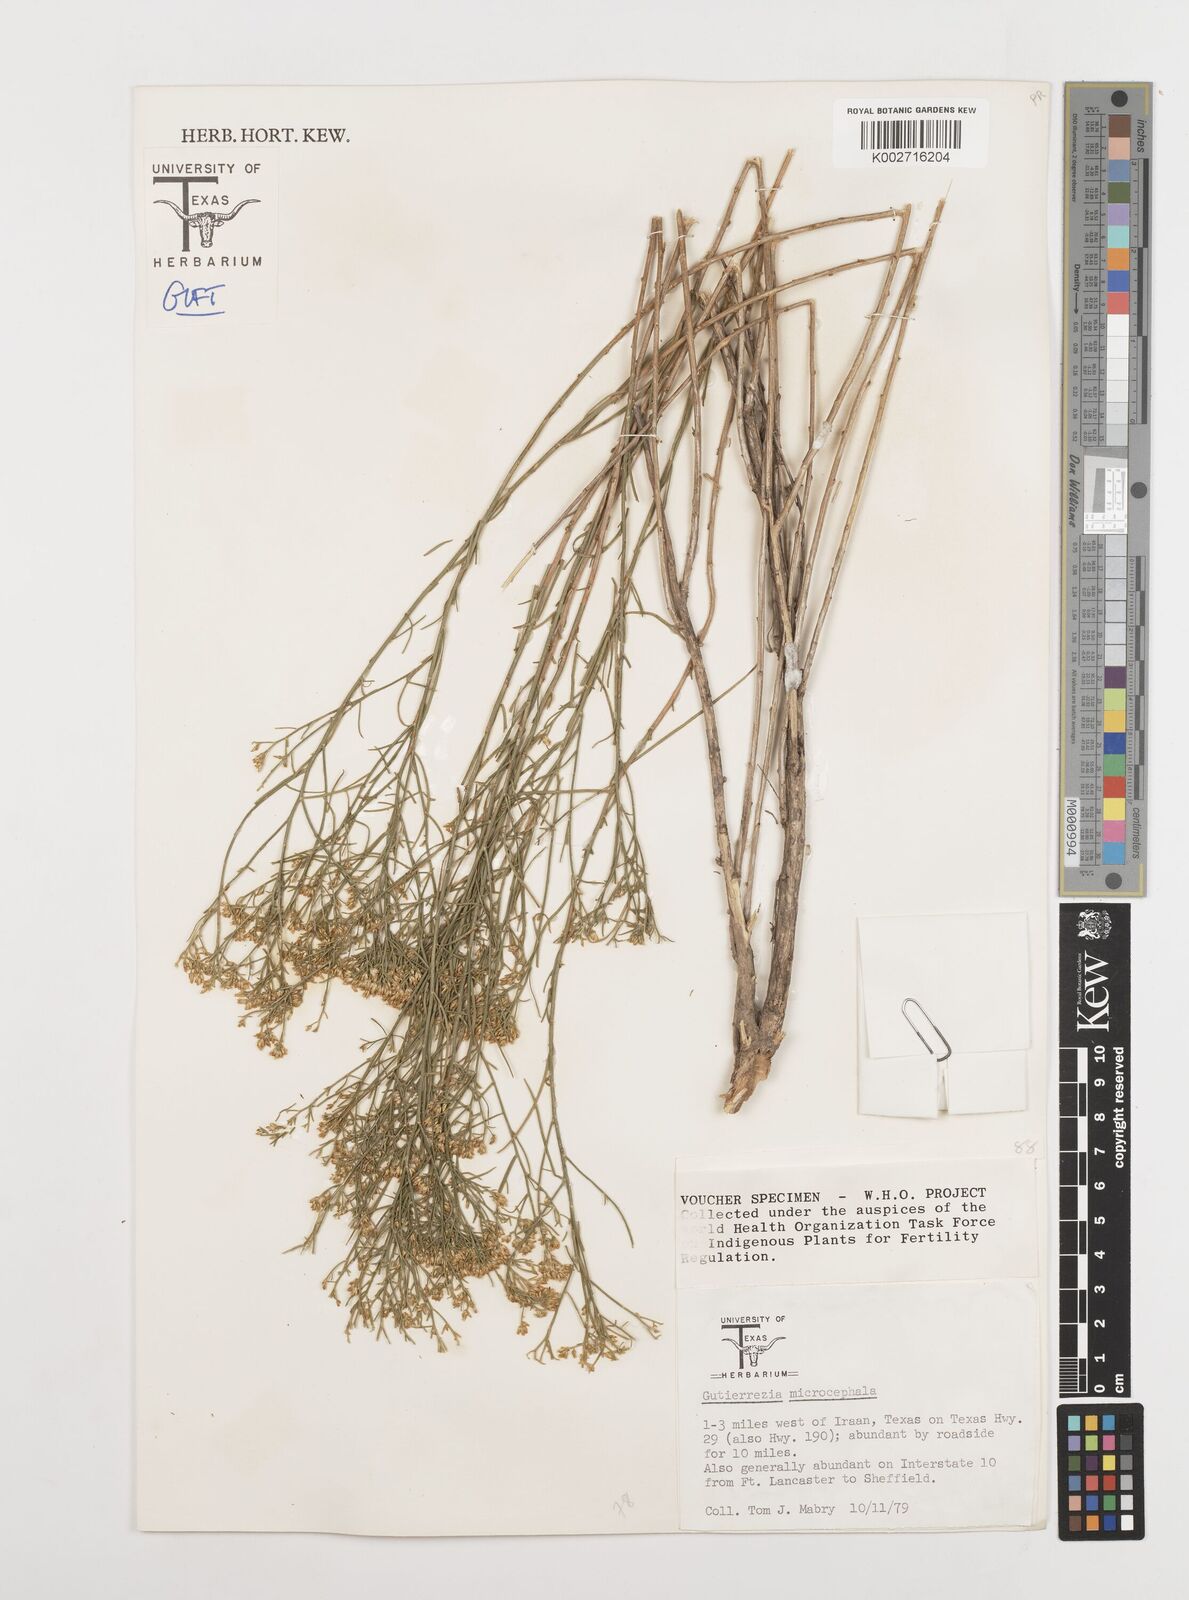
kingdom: Plantae
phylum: Tracheophyta
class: Magnoliopsida
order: Asterales
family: Asteraceae
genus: Gutierrezia
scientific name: Gutierrezia microcephala
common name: Thread snakeweed
